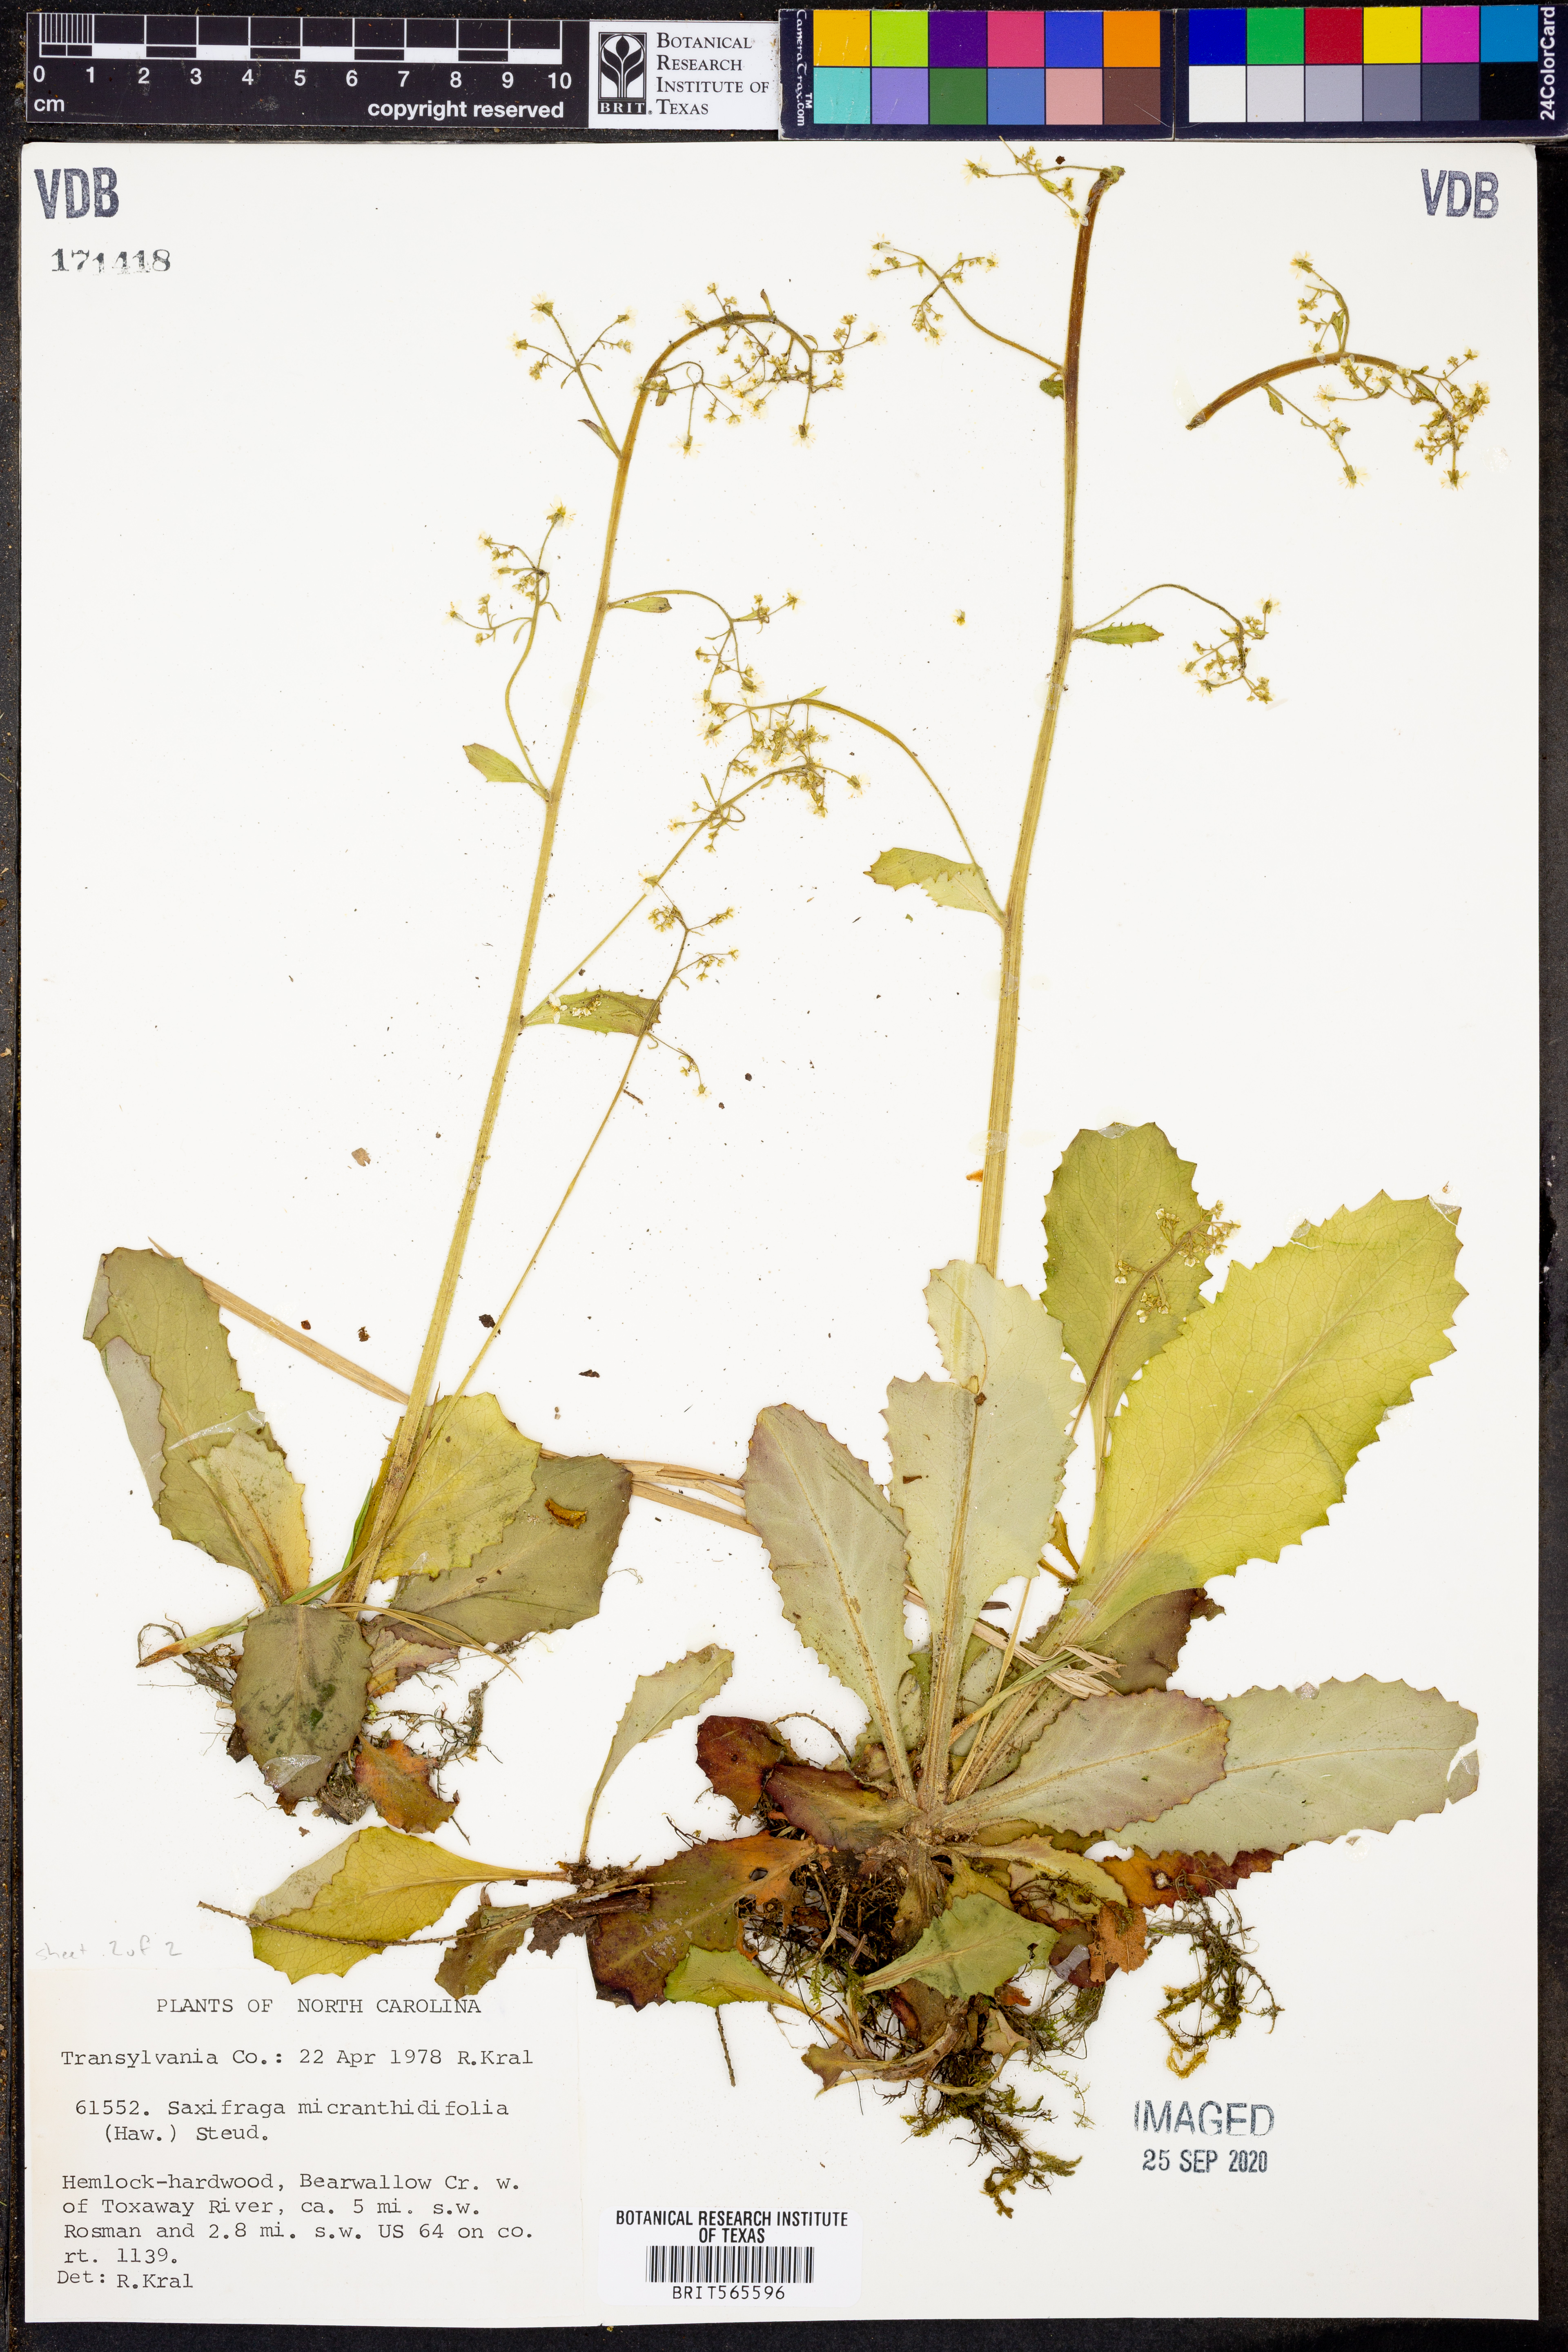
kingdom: Plantae
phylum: Tracheophyta
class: Magnoliopsida
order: Saxifragales
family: Saxifragaceae
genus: Micranthes
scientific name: Micranthes micranthidifolia
